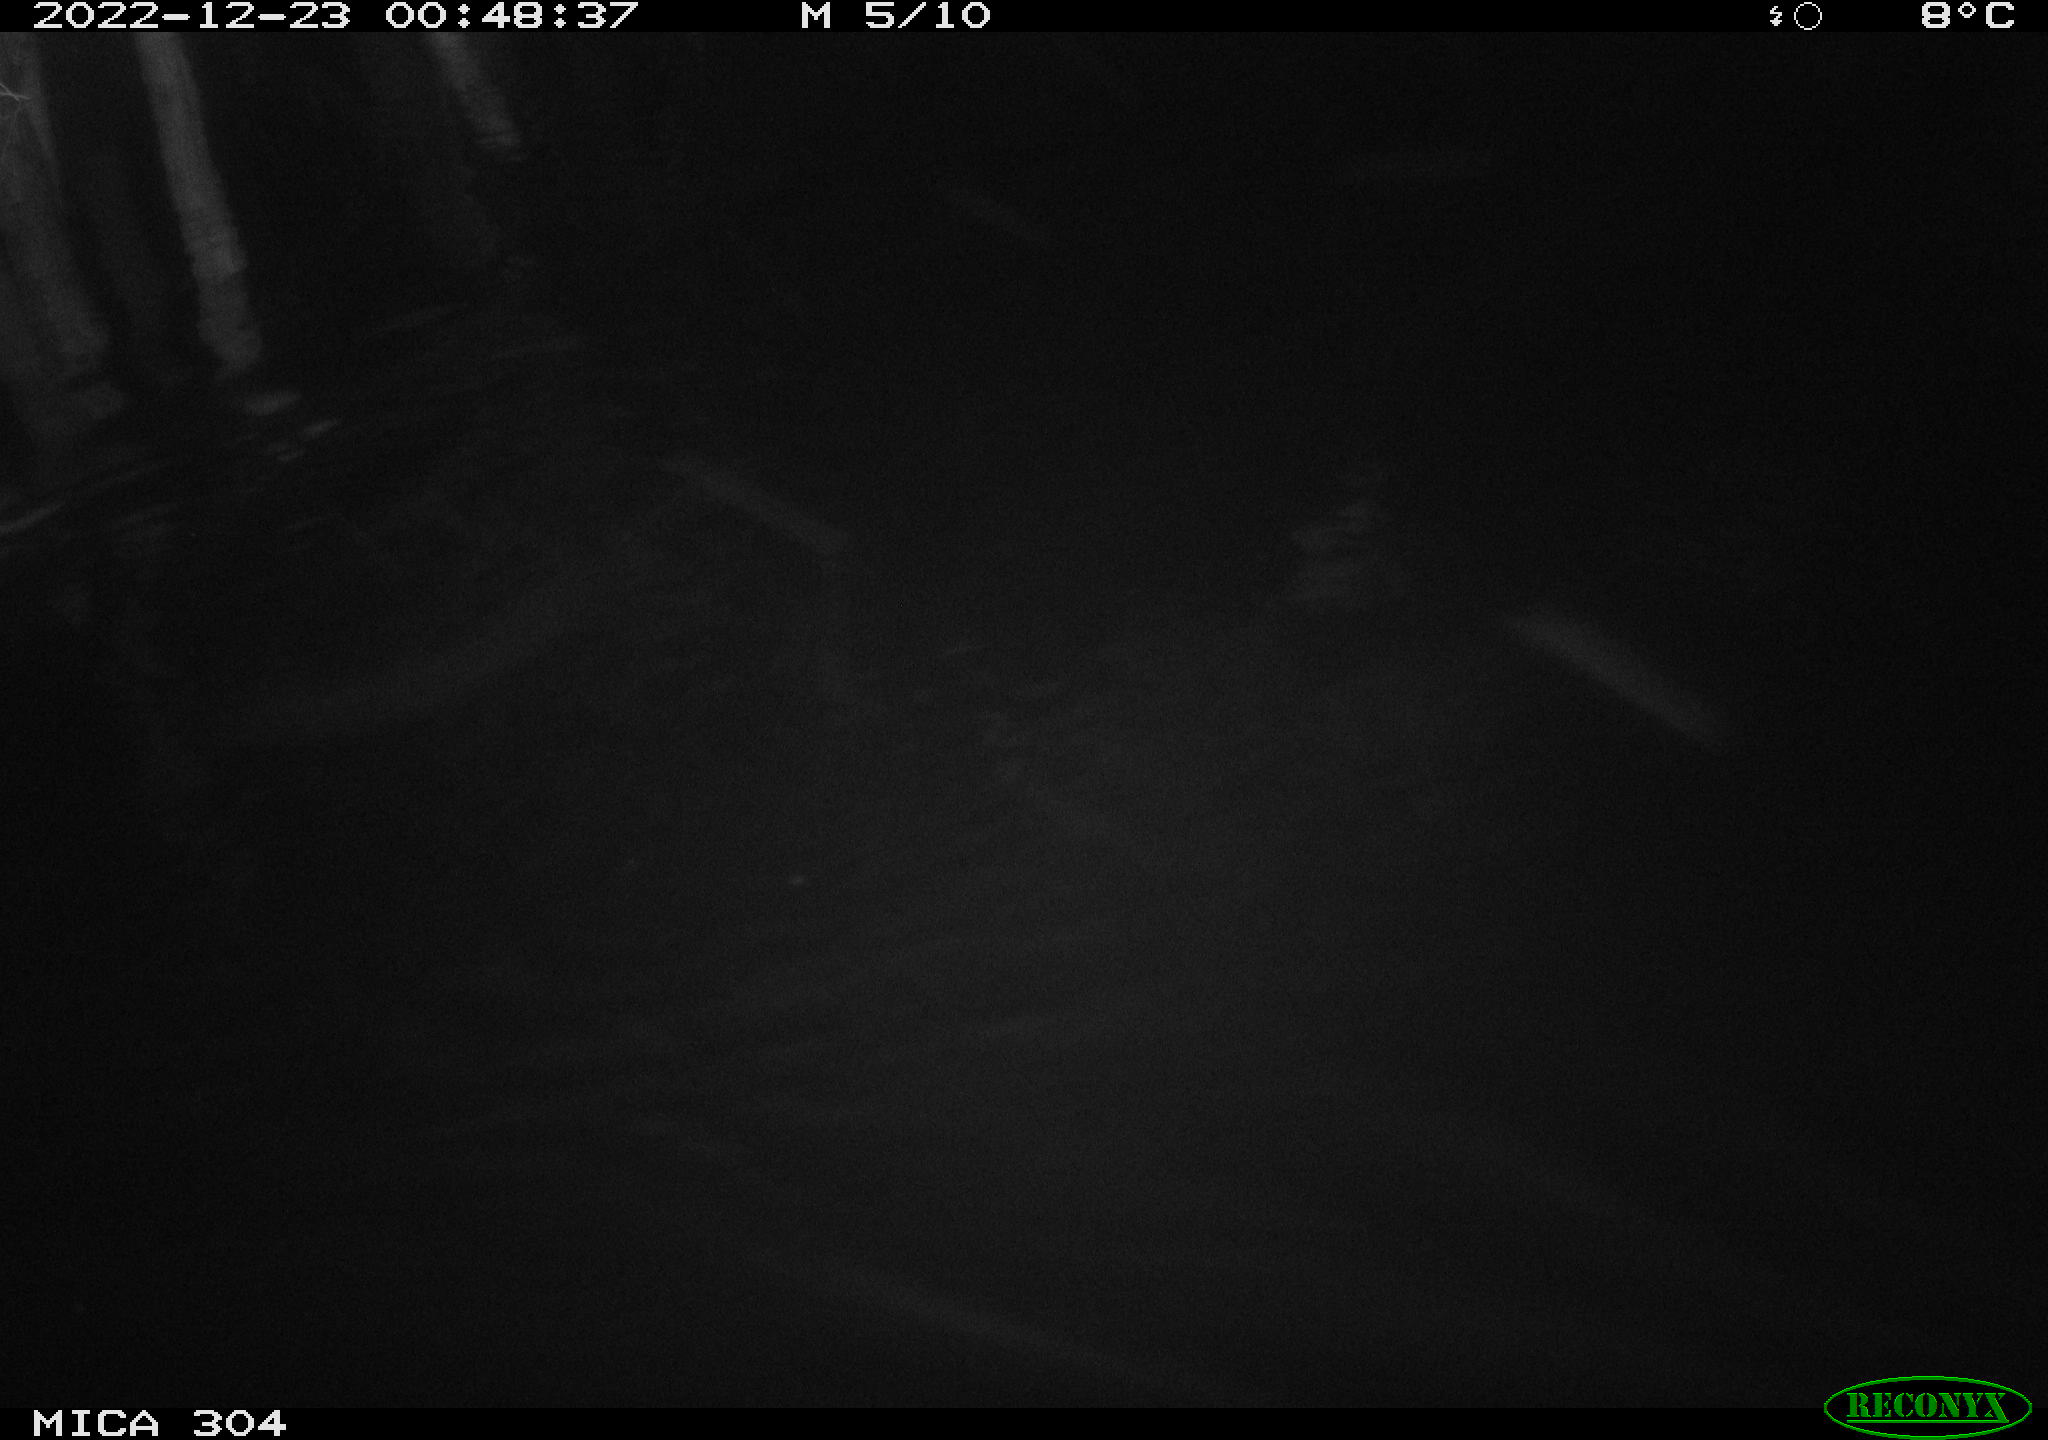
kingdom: Animalia
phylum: Chordata
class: Mammalia
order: Rodentia
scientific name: Rodentia
